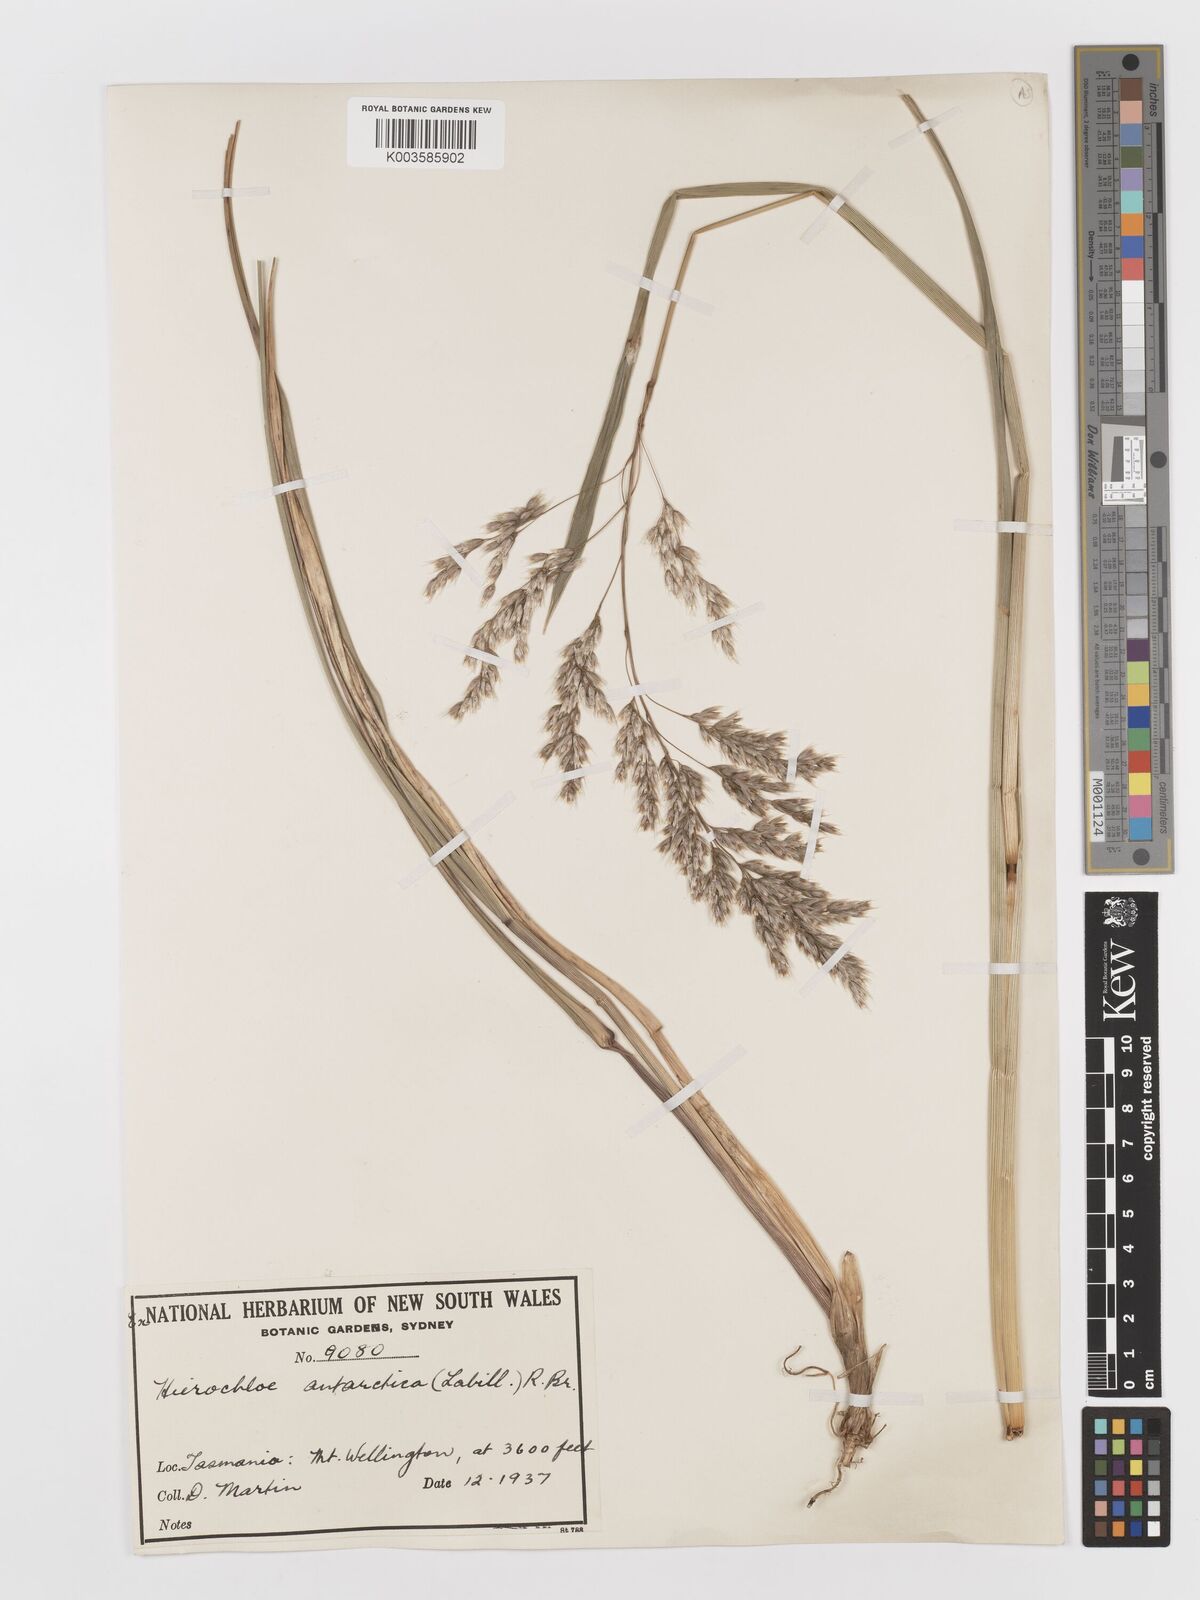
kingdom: Plantae
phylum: Tracheophyta
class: Liliopsida
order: Poales
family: Poaceae
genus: Anthoxanthum
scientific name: Anthoxanthum redolens
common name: Sweet holy grass
